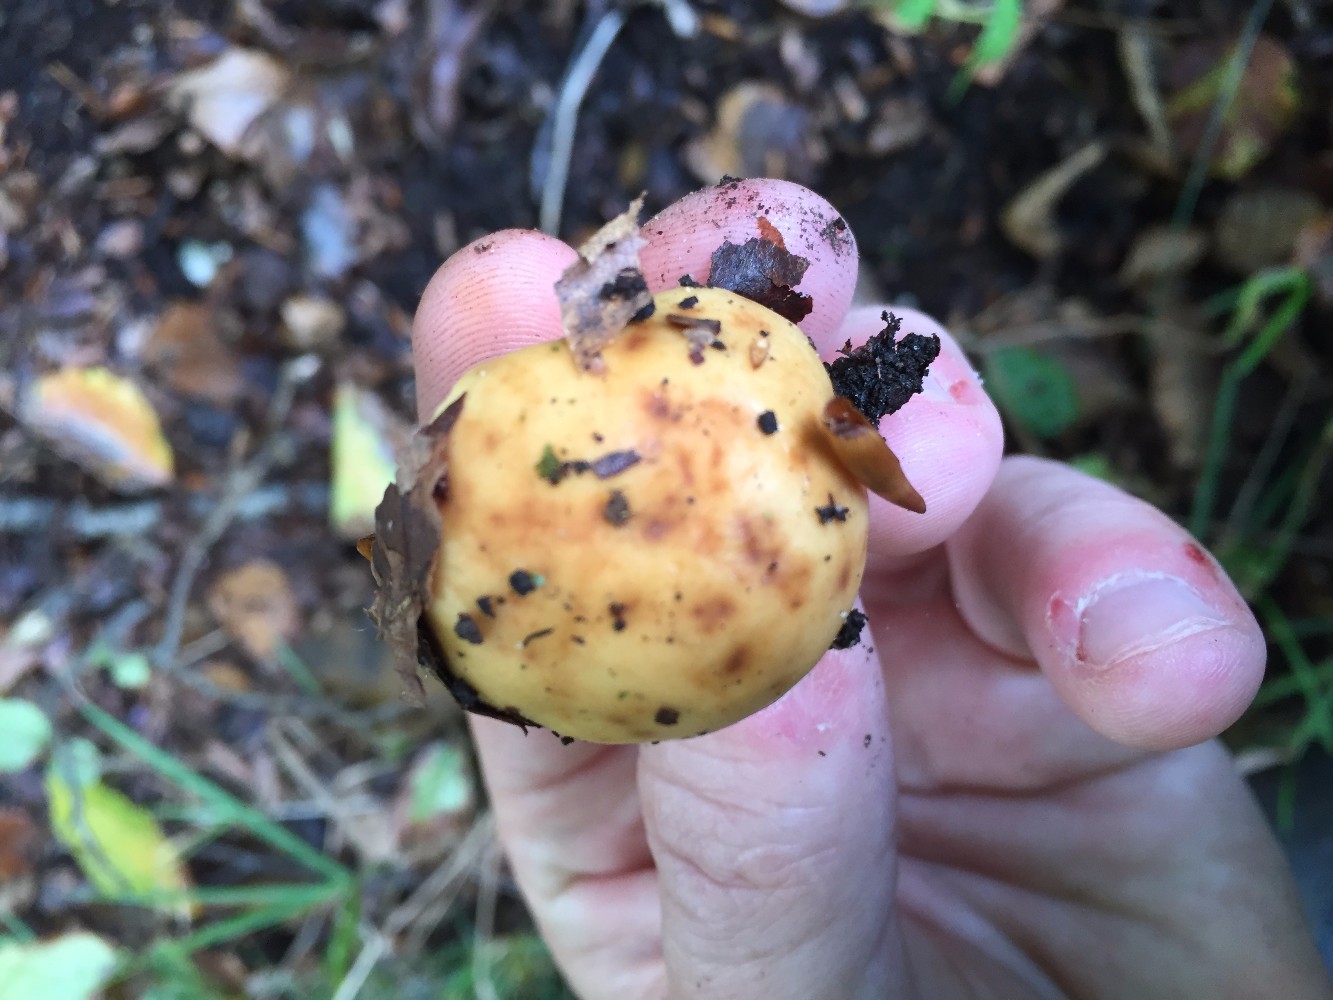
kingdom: Fungi
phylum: Basidiomycota
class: Agaricomycetes
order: Russulales
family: Russulaceae
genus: Russula
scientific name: Russula fellea
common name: galde-skørhat
